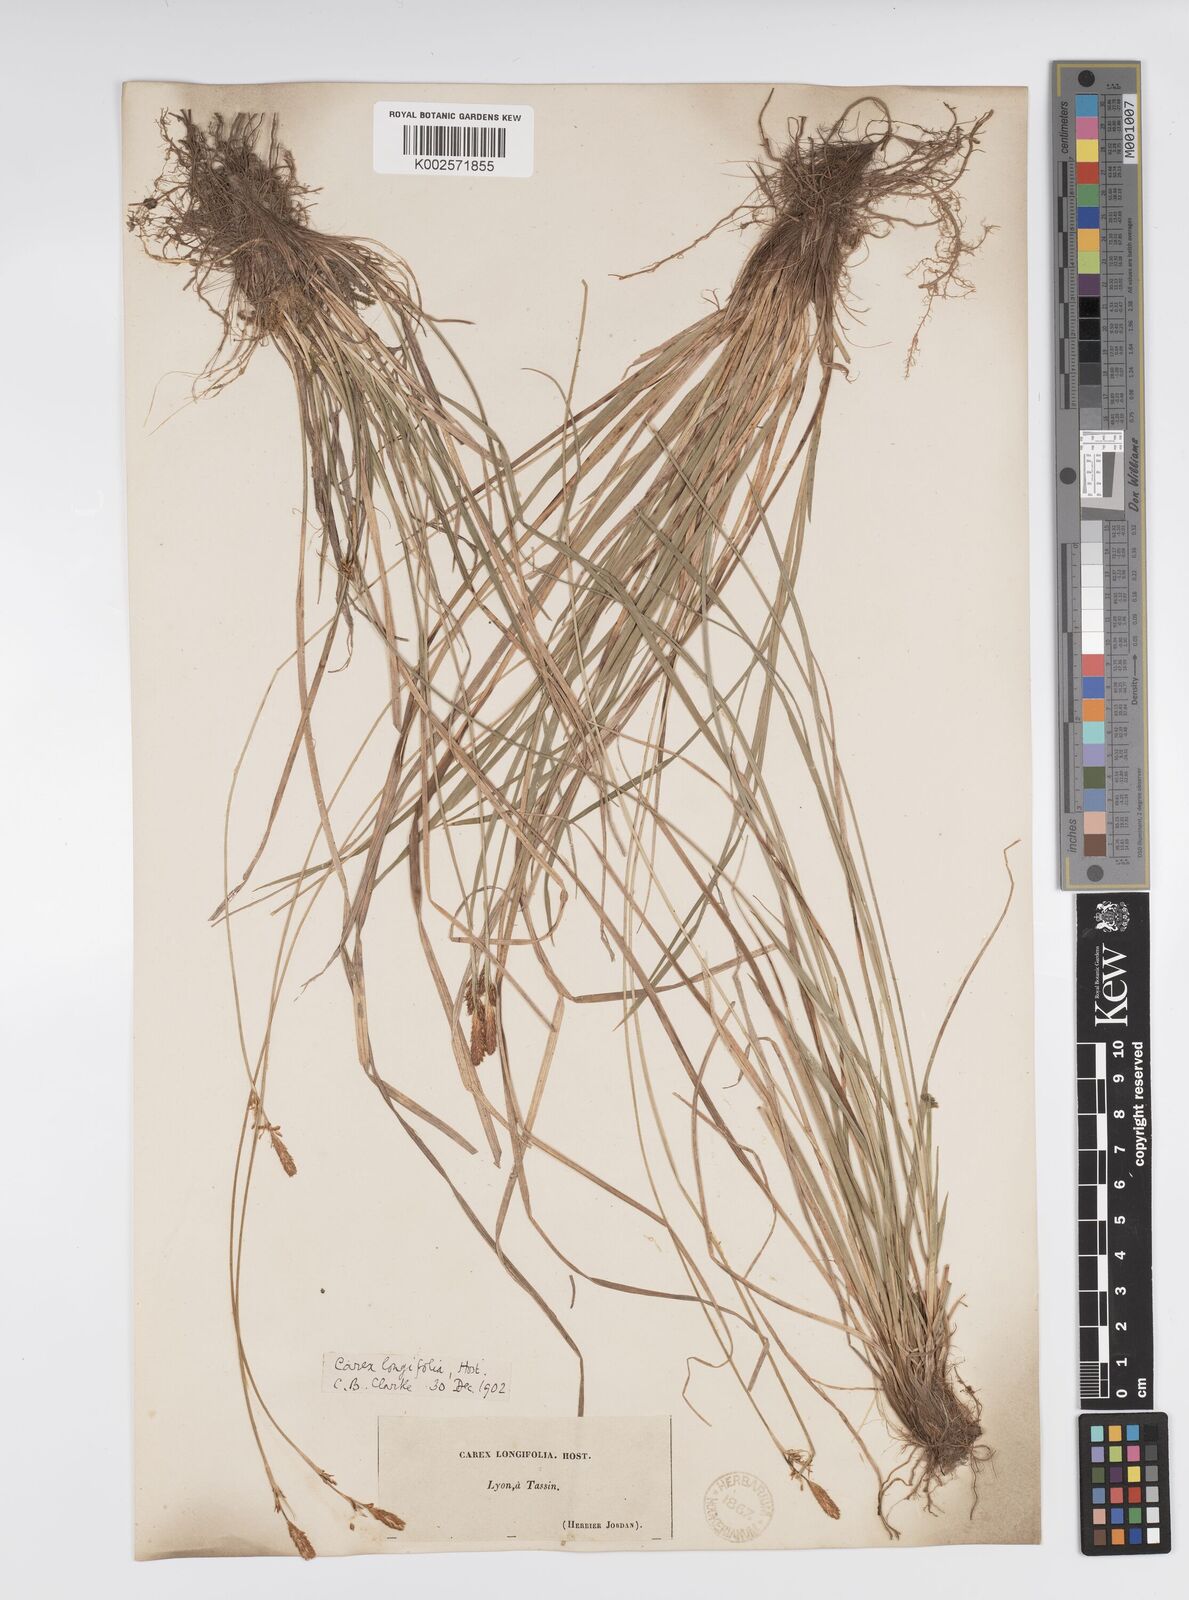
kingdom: Plantae
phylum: Tracheophyta
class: Liliopsida
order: Poales
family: Cyperaceae
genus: Carex
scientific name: Carex umbrosa
